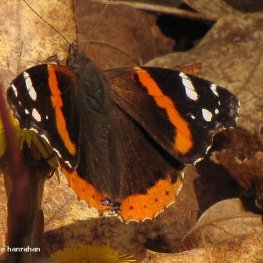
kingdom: Animalia
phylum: Arthropoda
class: Insecta
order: Lepidoptera
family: Nymphalidae
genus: Vanessa
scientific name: Vanessa atalanta
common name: Red Admiral
